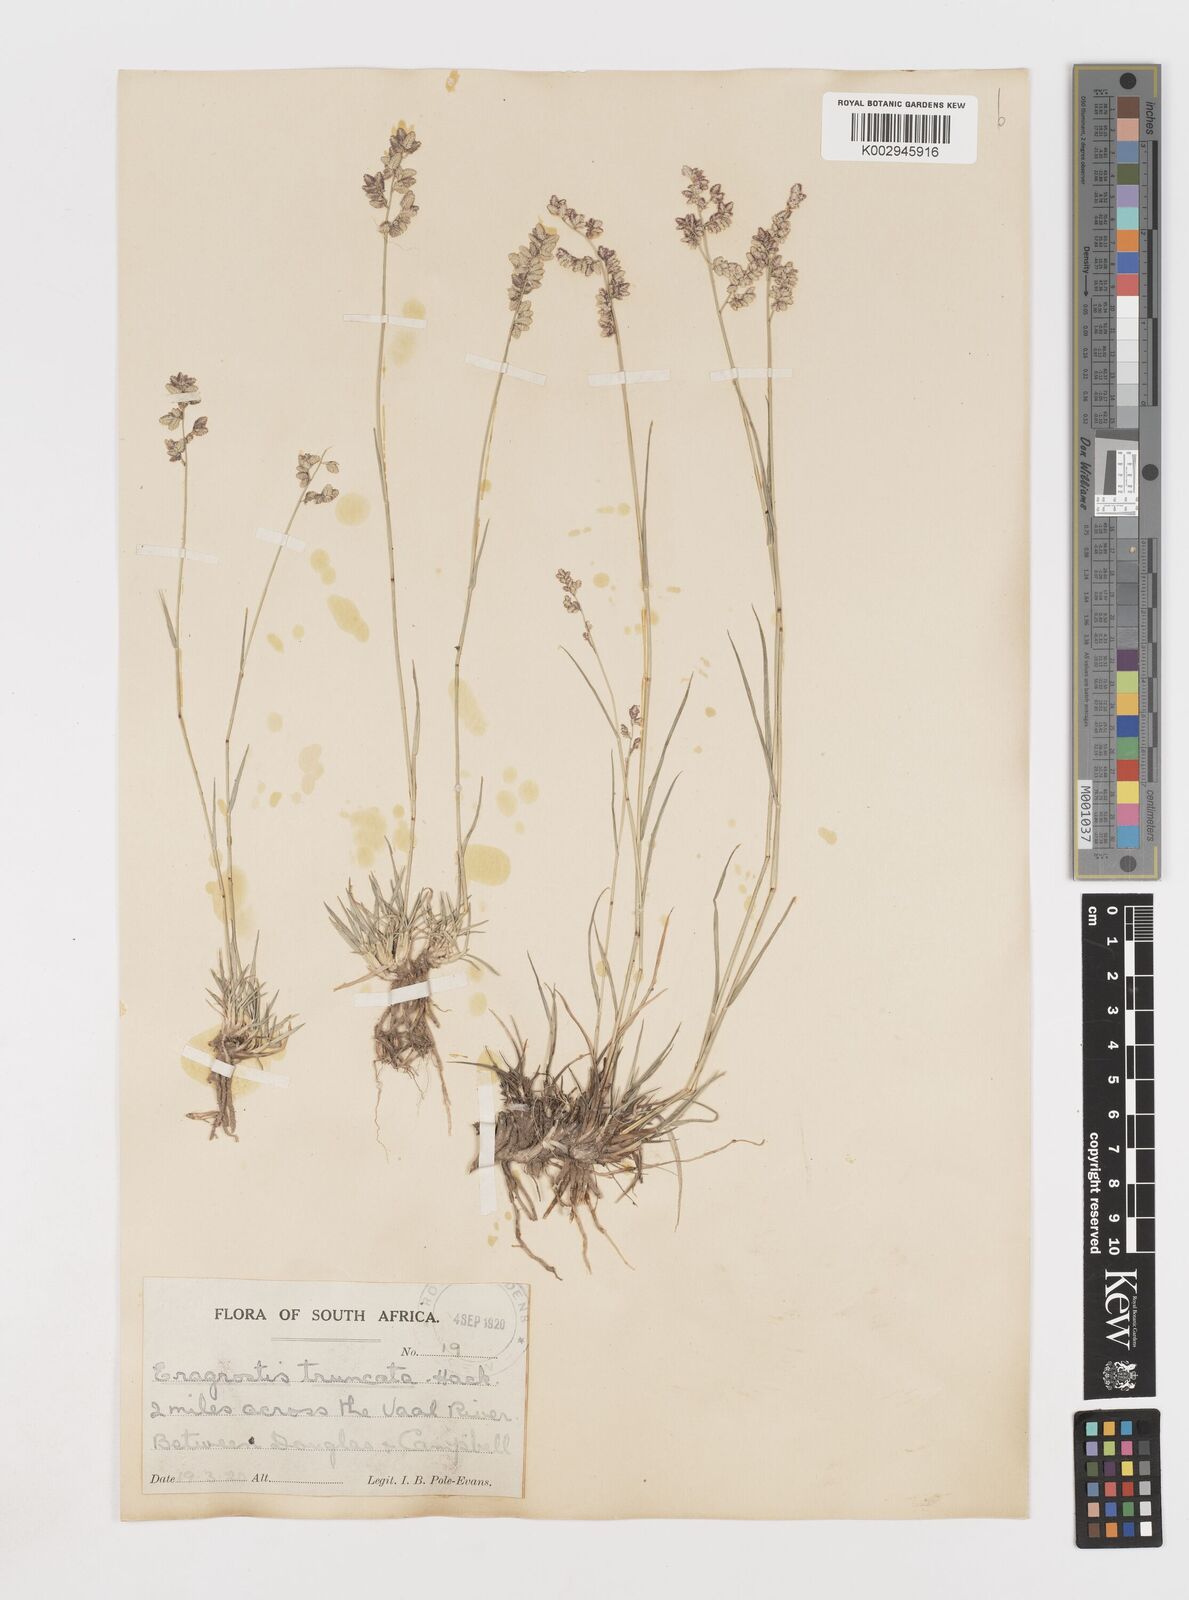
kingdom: Plantae
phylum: Tracheophyta
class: Liliopsida
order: Poales
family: Poaceae
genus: Eragrostis
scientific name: Eragrostis truncata
